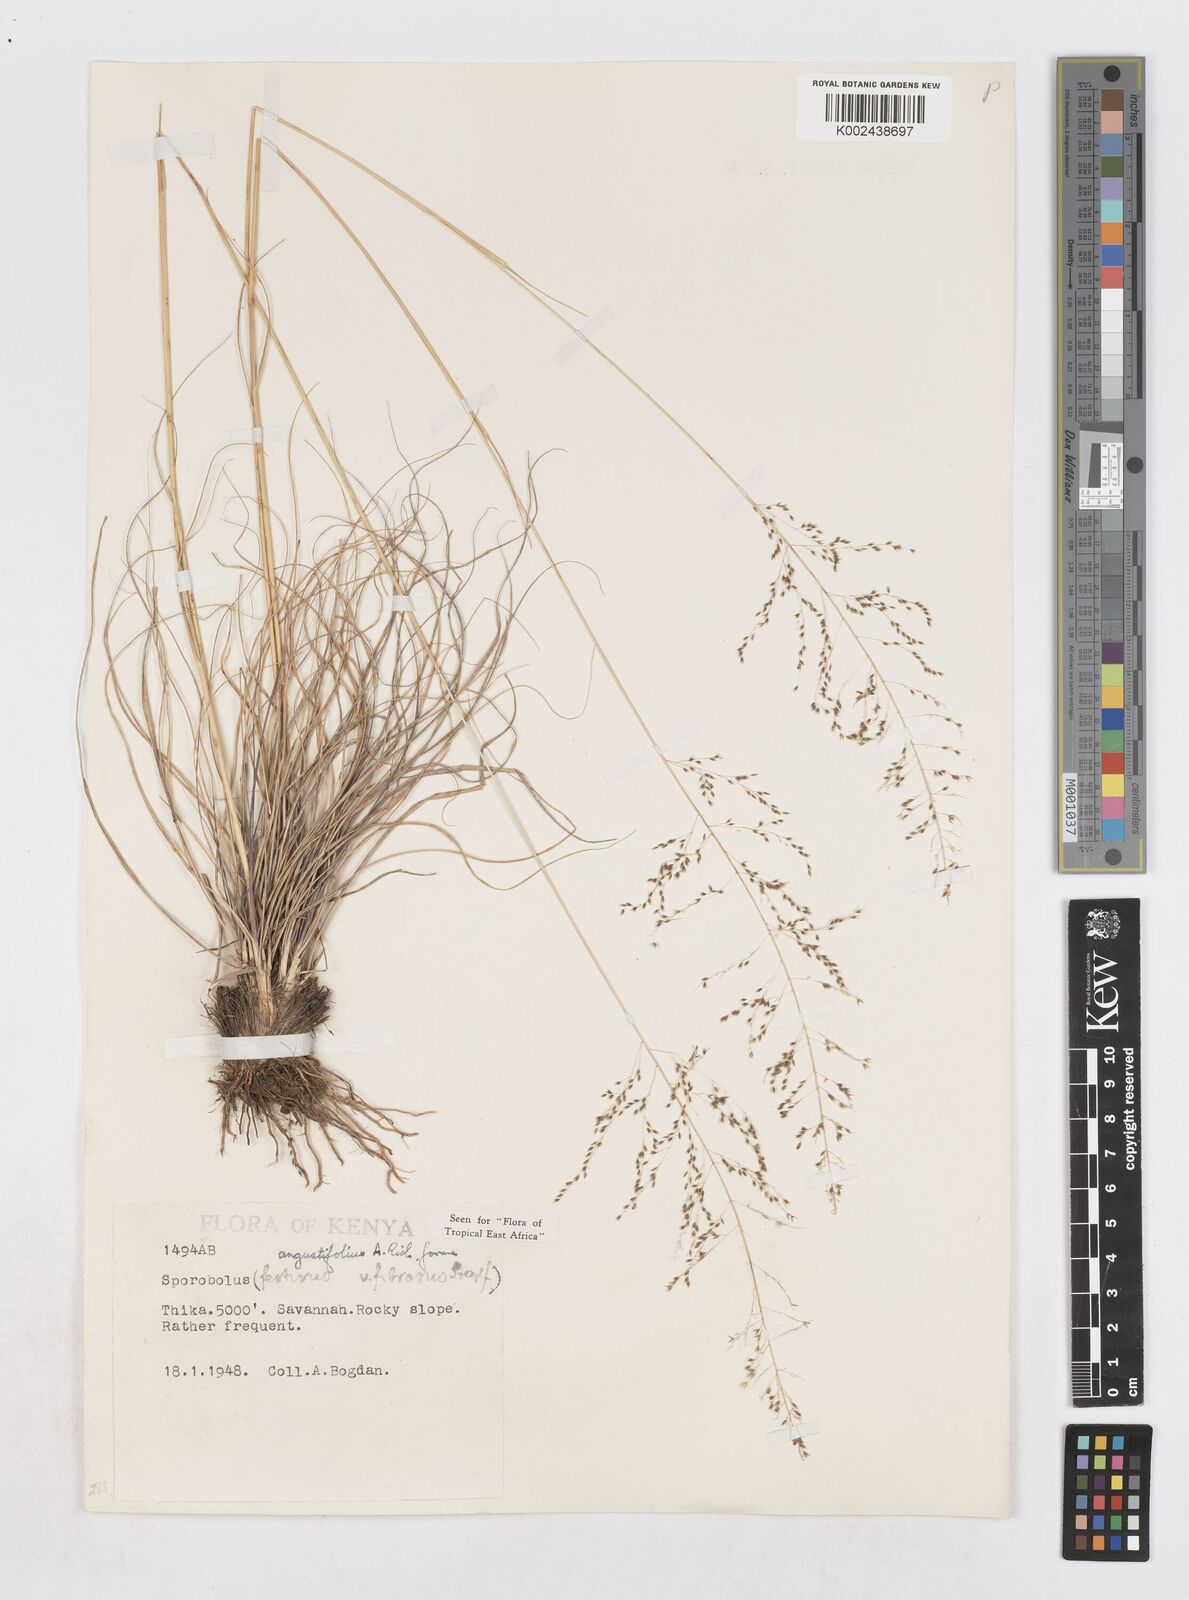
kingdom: Plantae
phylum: Tracheophyta
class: Liliopsida
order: Poales
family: Poaceae
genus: Sporobolus
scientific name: Sporobolus angustifolius
